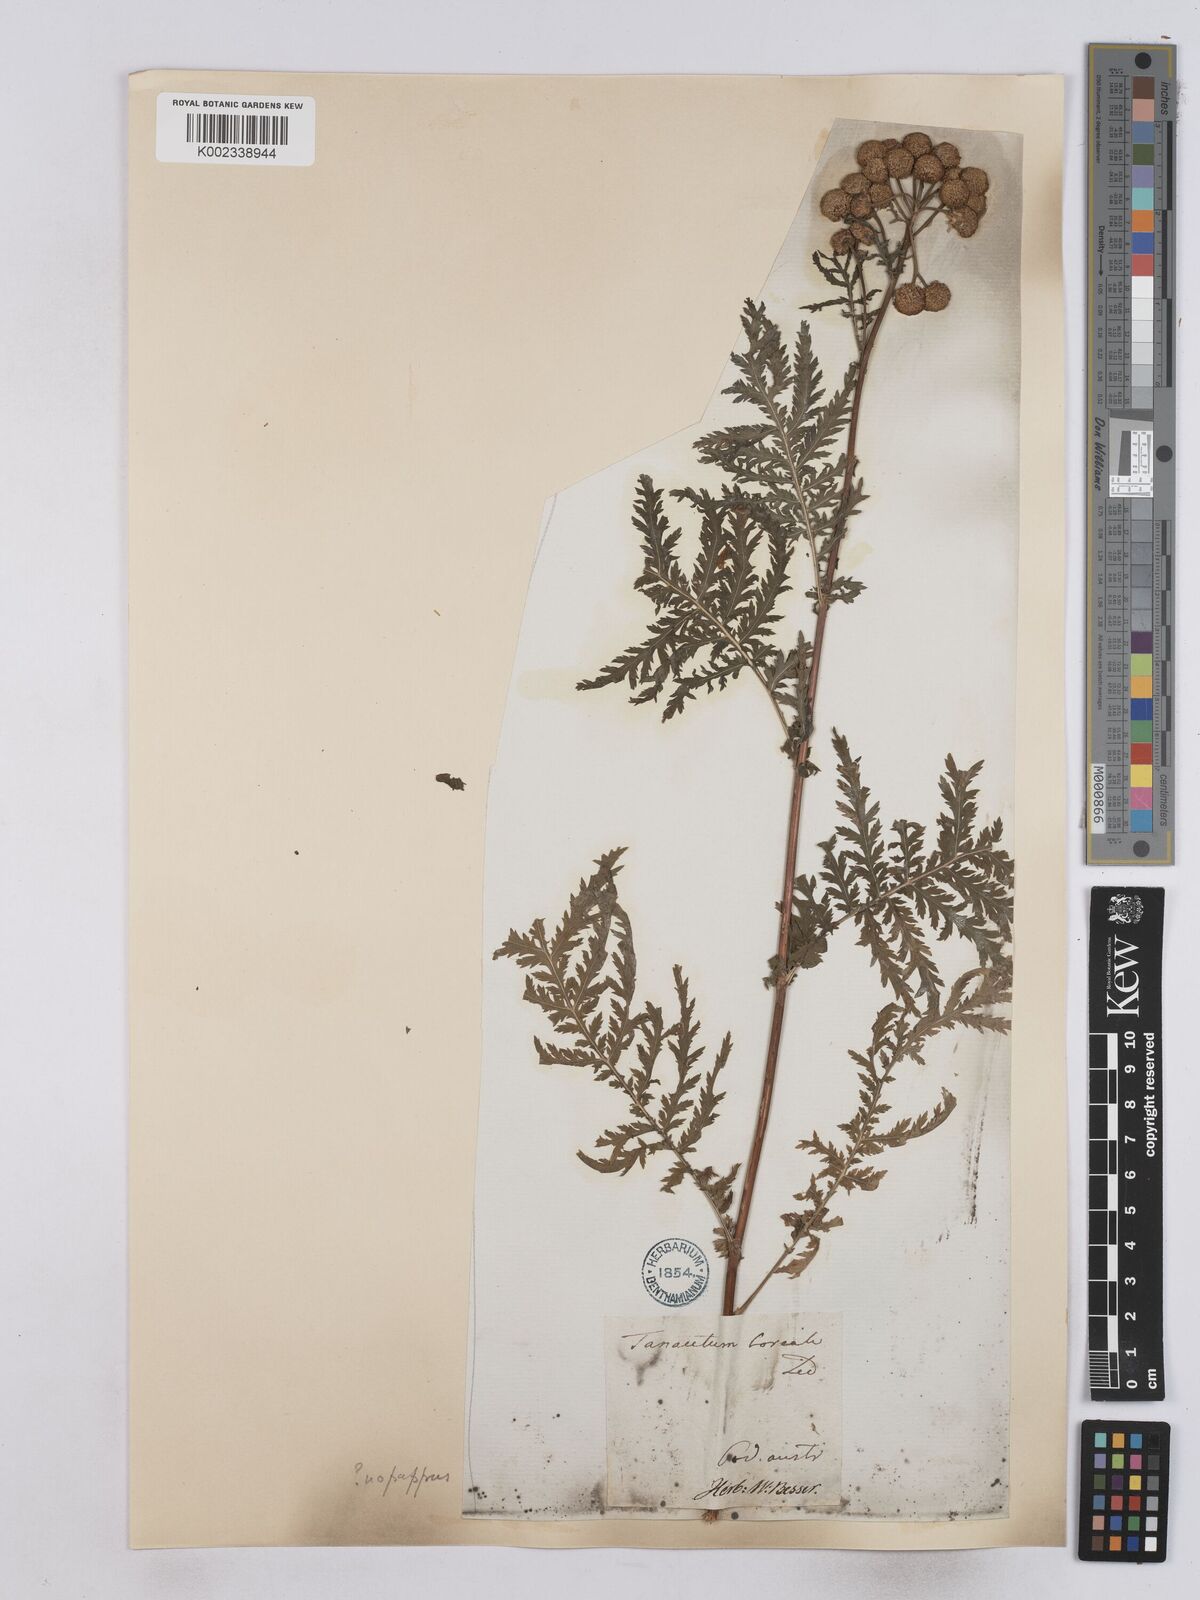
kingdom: Plantae
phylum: Tracheophyta
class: Magnoliopsida
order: Asterales
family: Asteraceae
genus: Tanacetum
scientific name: Tanacetum vulgare
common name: Common tansy
